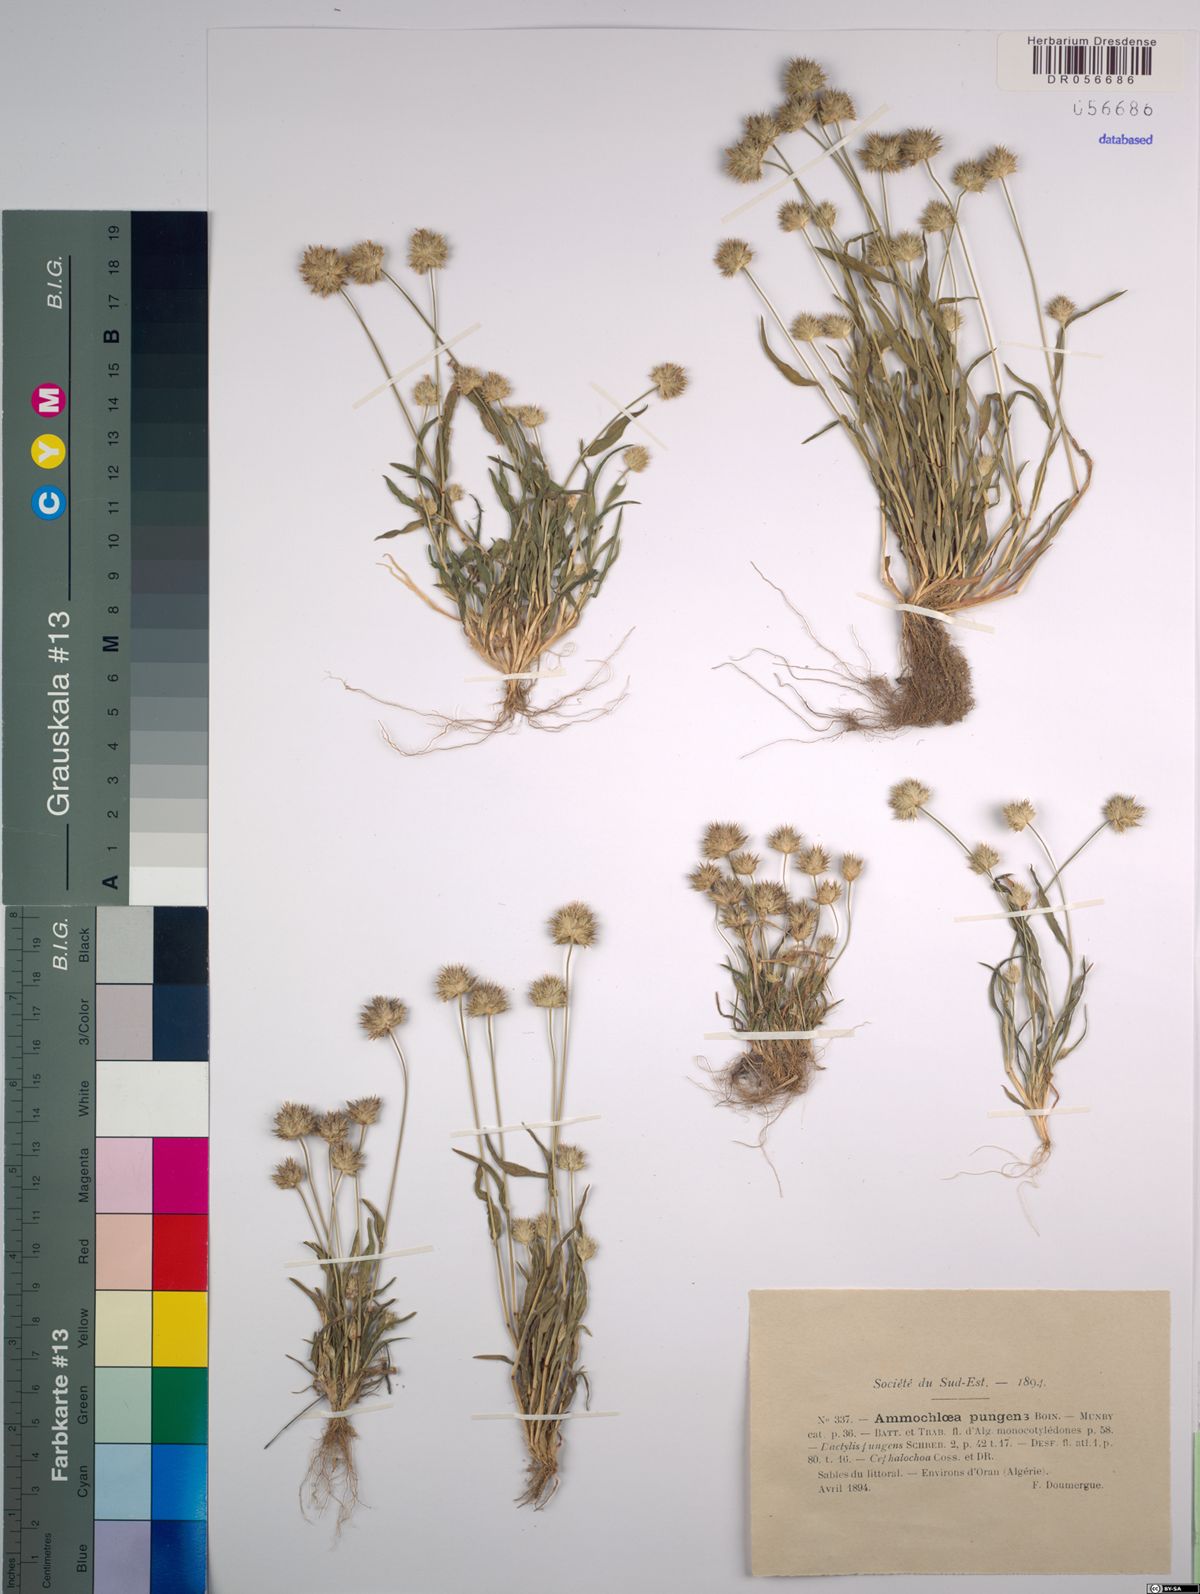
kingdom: Plantae
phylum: Tracheophyta
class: Liliopsida
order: Poales
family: Poaceae
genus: Ammochloa
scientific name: Ammochloa pungens
